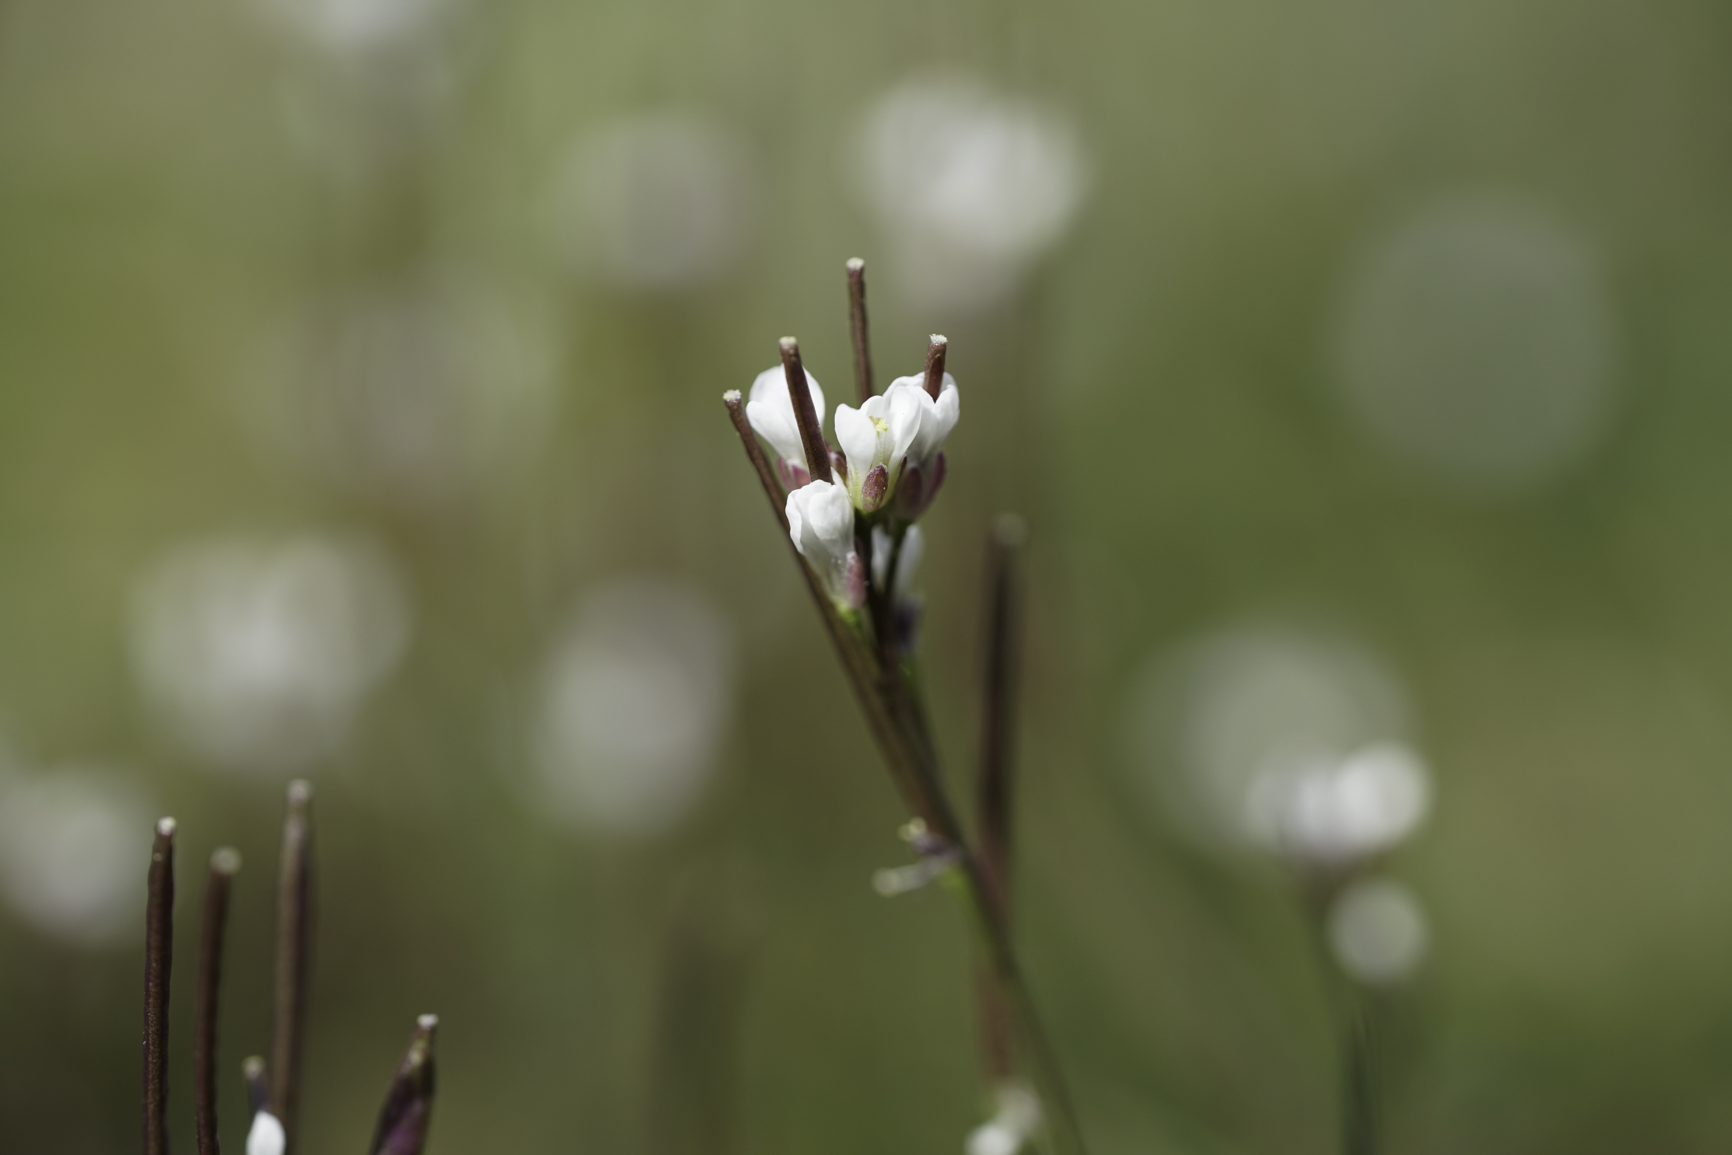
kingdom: Plantae
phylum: Tracheophyta
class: Magnoliopsida
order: Brassicales
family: Brassicaceae
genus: Cardamine
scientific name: Cardamine hirsuta
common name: Hairy bittercress
